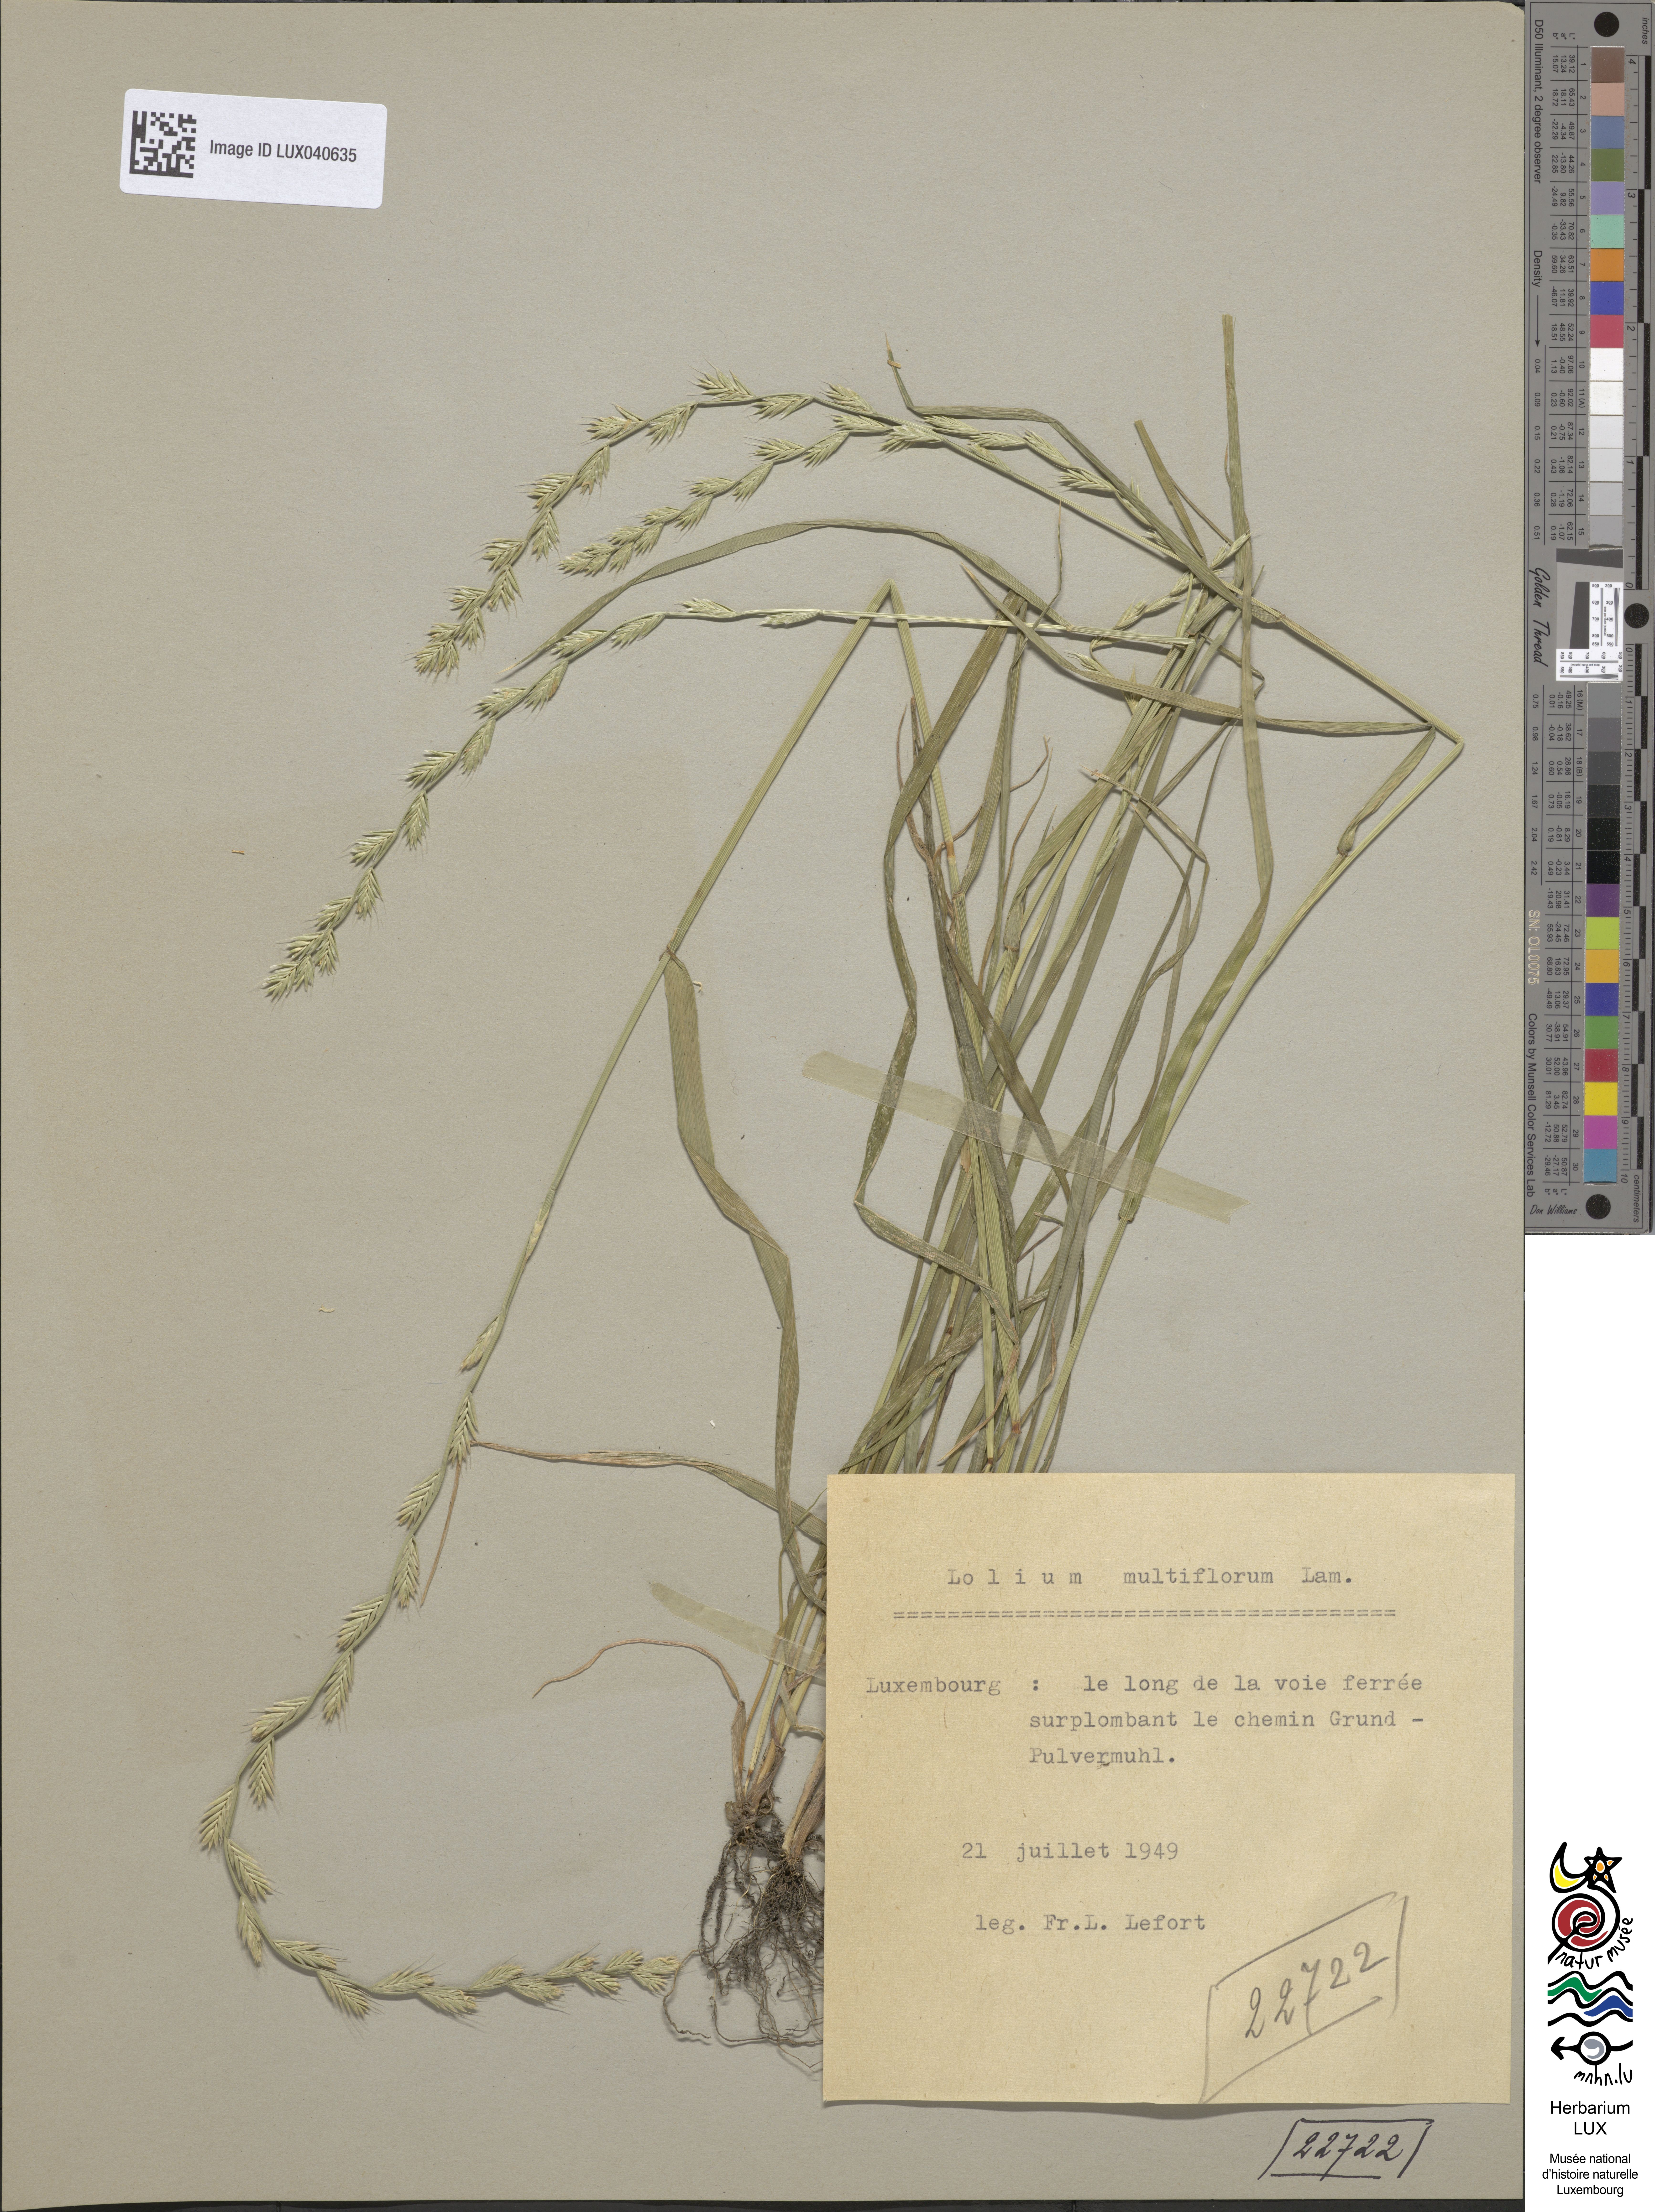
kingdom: Plantae
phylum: Tracheophyta
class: Liliopsida
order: Poales
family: Poaceae
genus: Lolium
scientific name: Lolium multiflorum
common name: Annual ryegrass
